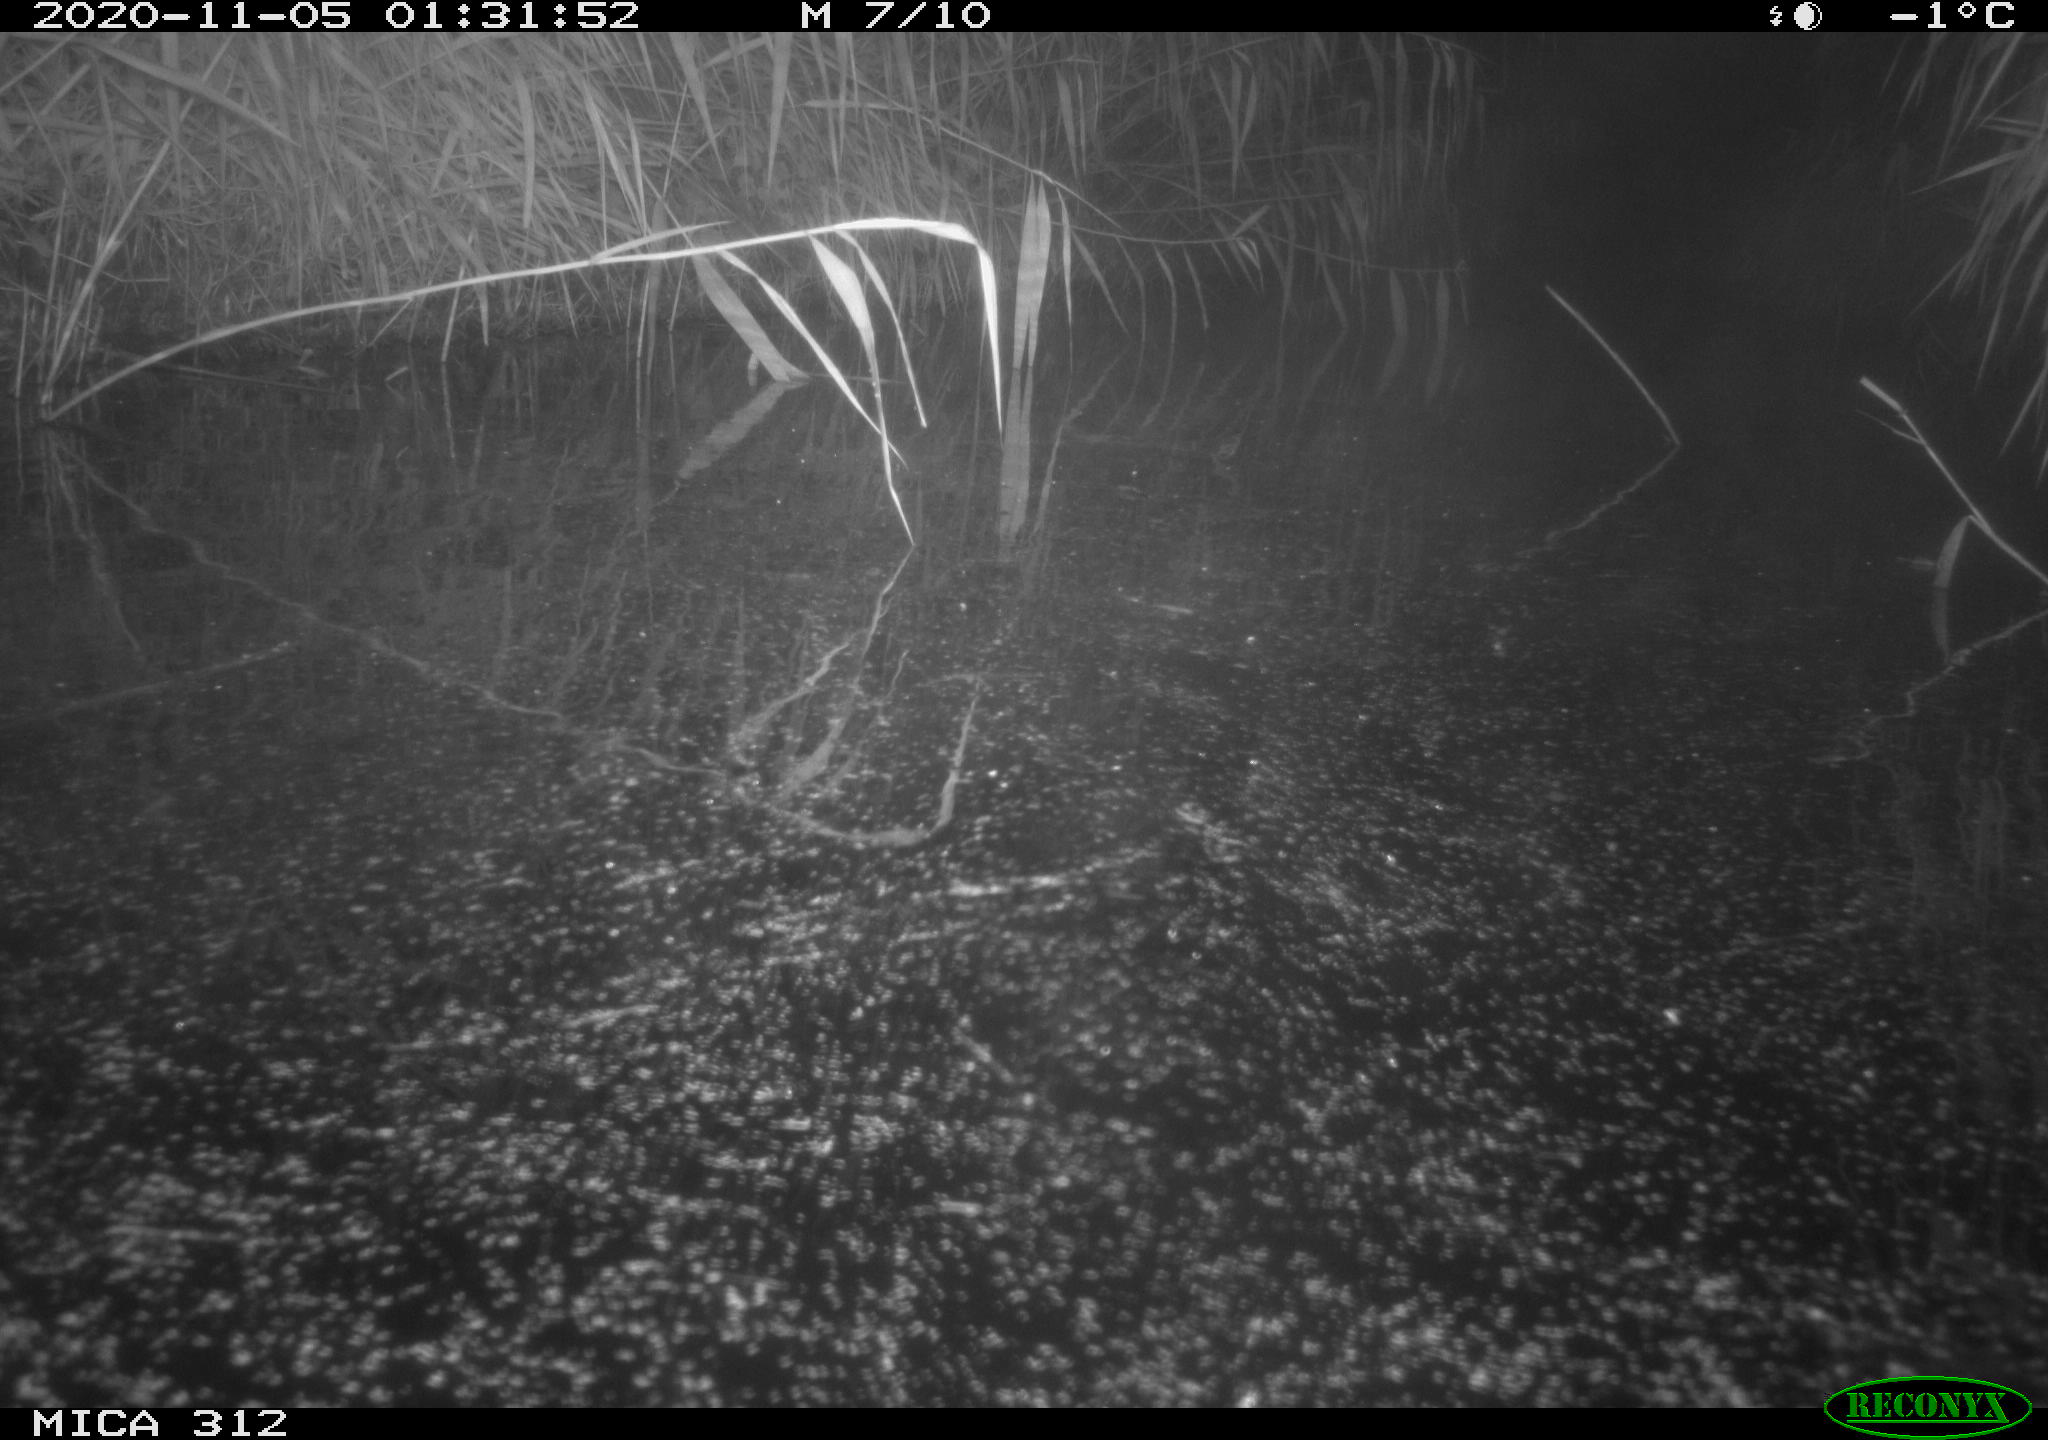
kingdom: Animalia
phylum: Chordata
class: Mammalia
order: Rodentia
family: Muridae
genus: Rattus
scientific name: Rattus norvegicus
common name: Brown rat
